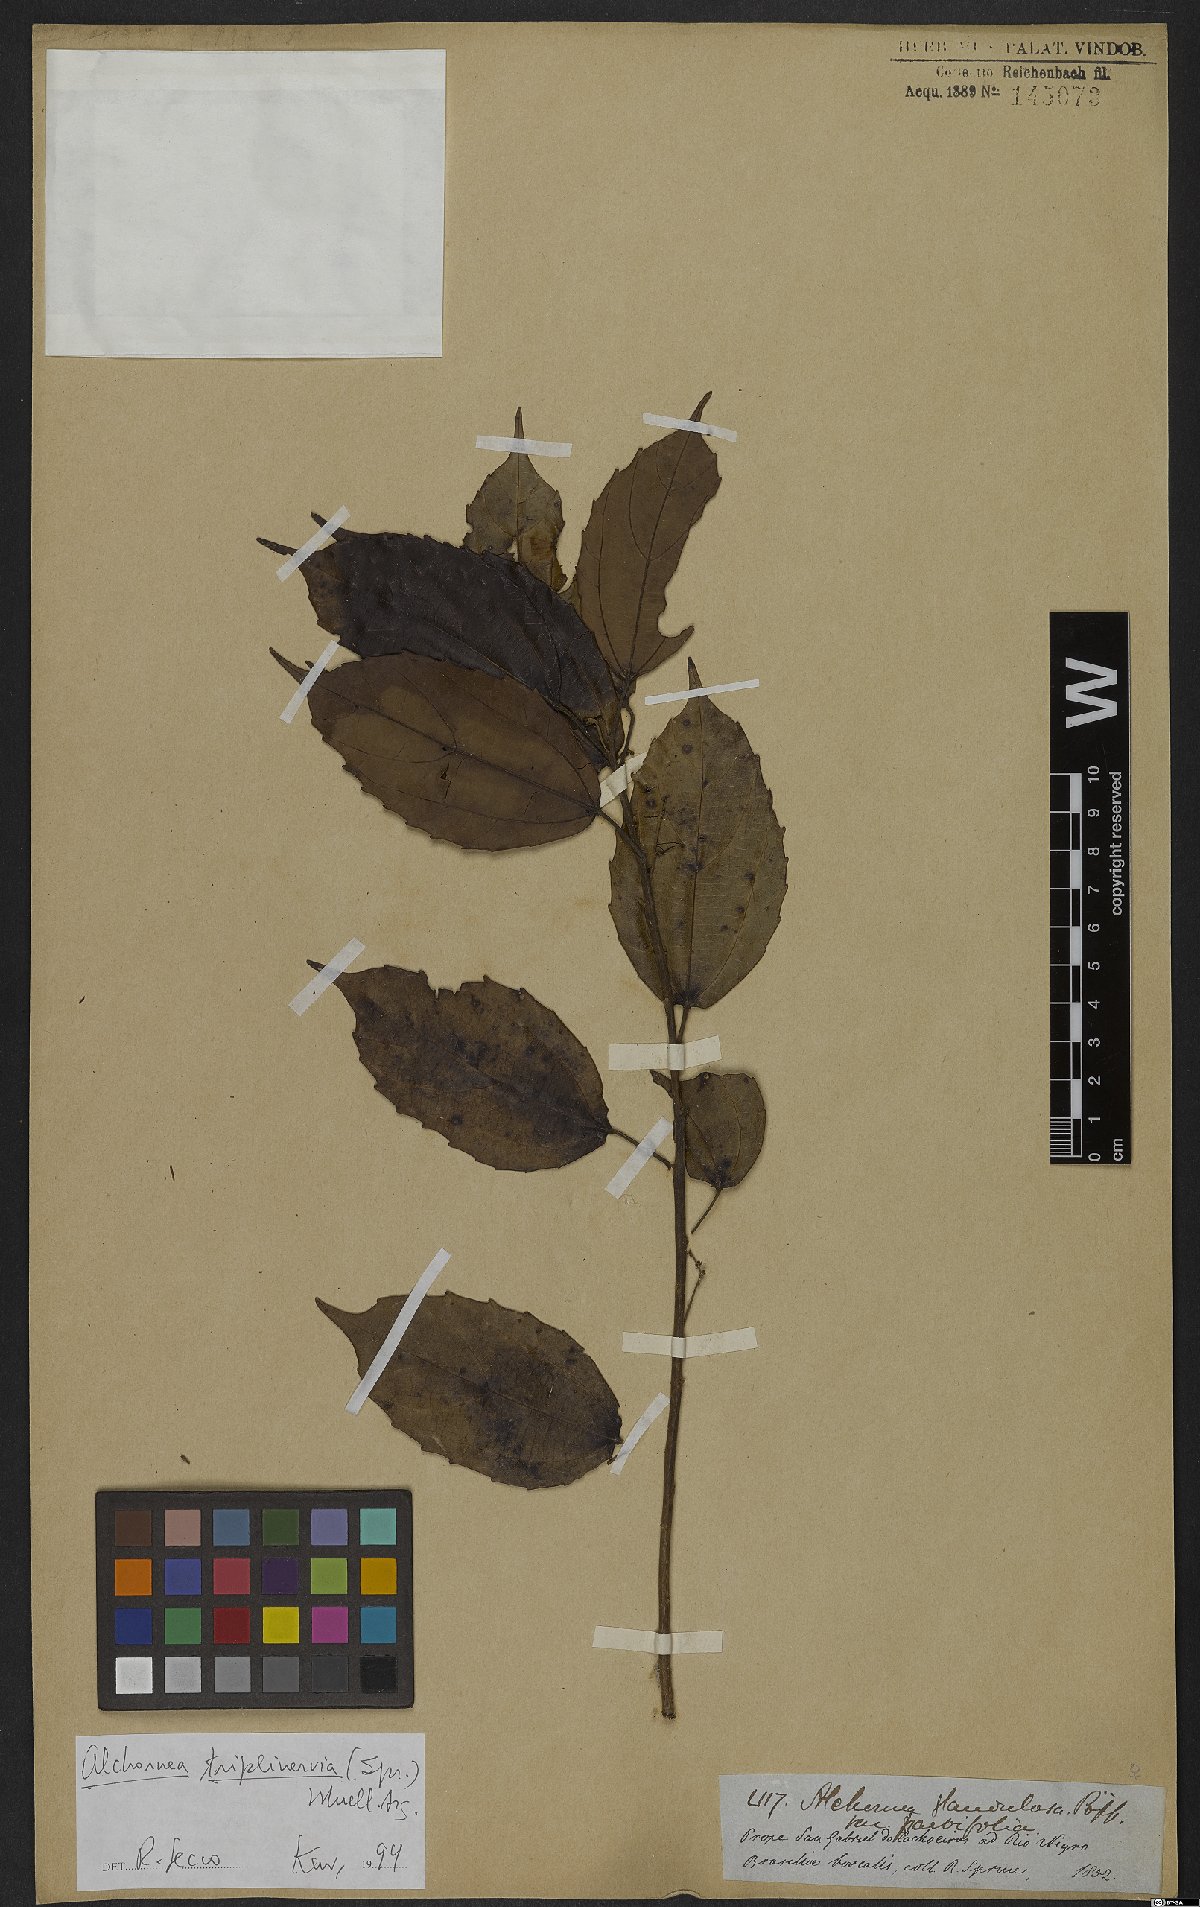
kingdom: Plantae
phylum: Tracheophyta
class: Magnoliopsida
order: Malpighiales
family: Euphorbiaceae
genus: Alchornea
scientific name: Alchornea triplinervia
